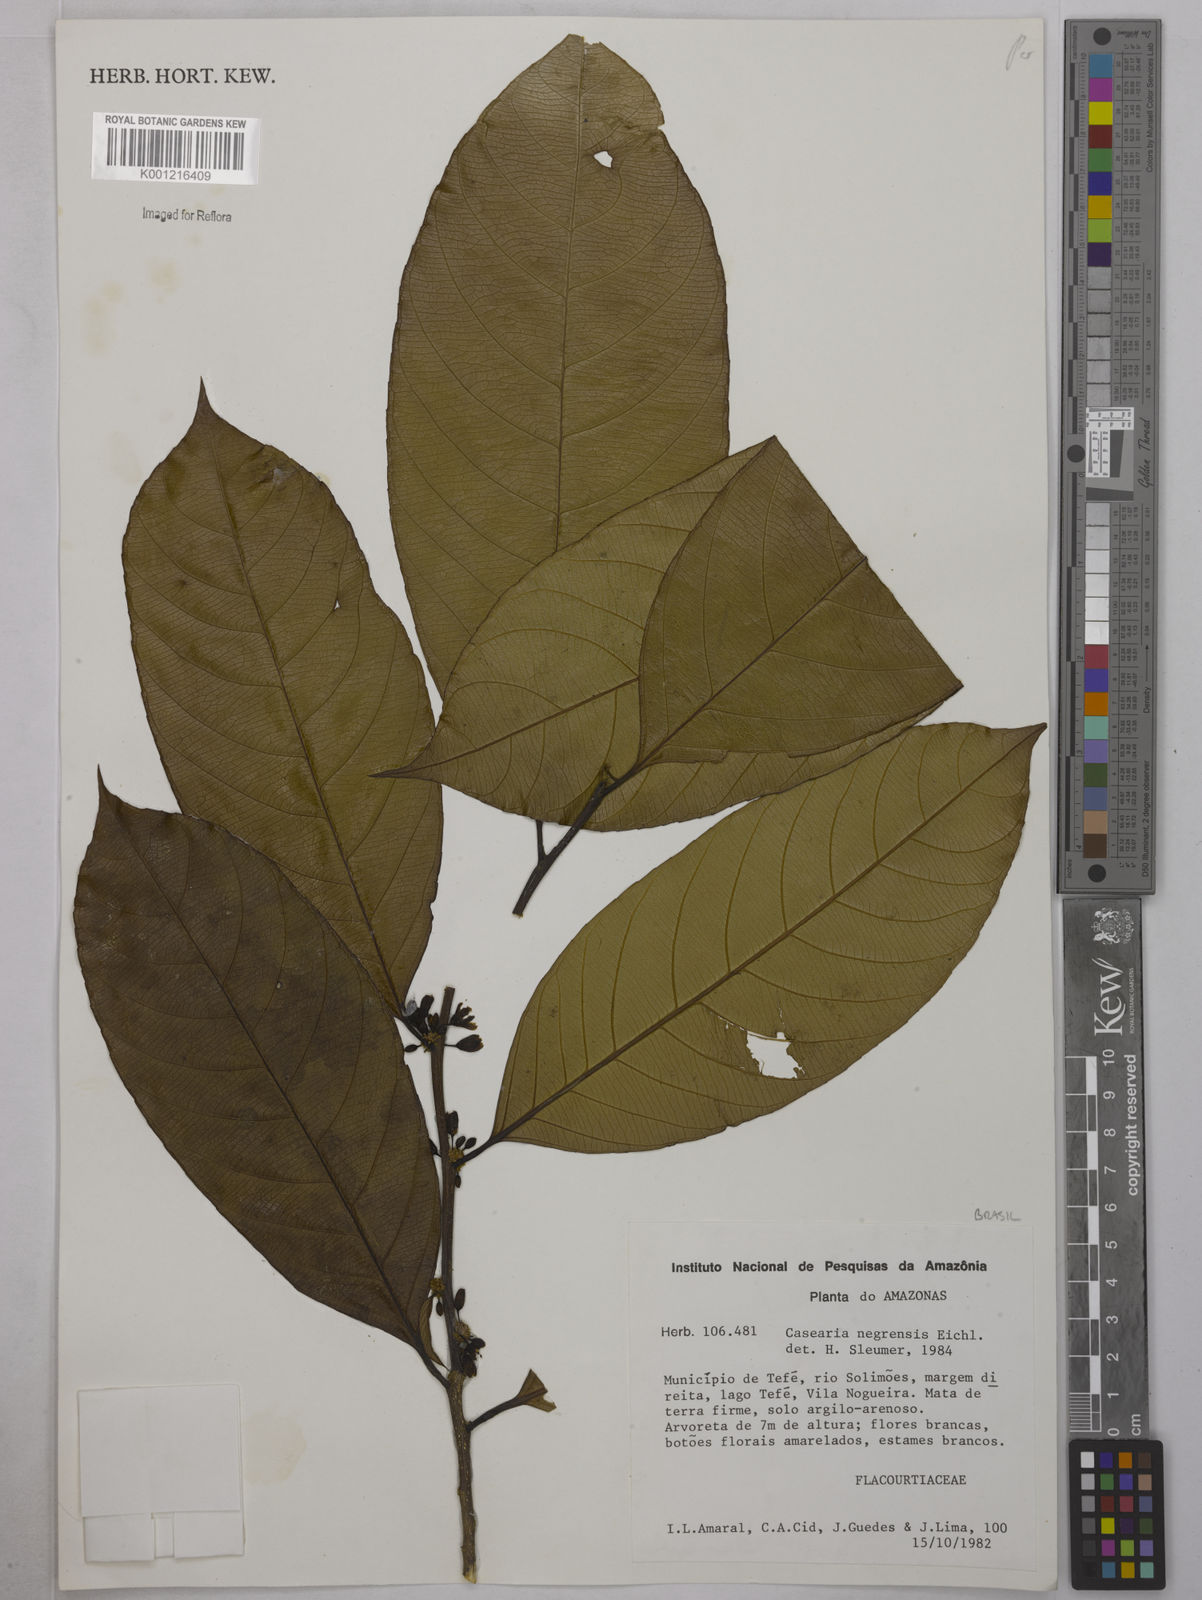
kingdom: Plantae
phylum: Tracheophyta
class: Magnoliopsida
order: Malpighiales
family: Salicaceae
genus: Casearia
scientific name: Casearia negrensis
